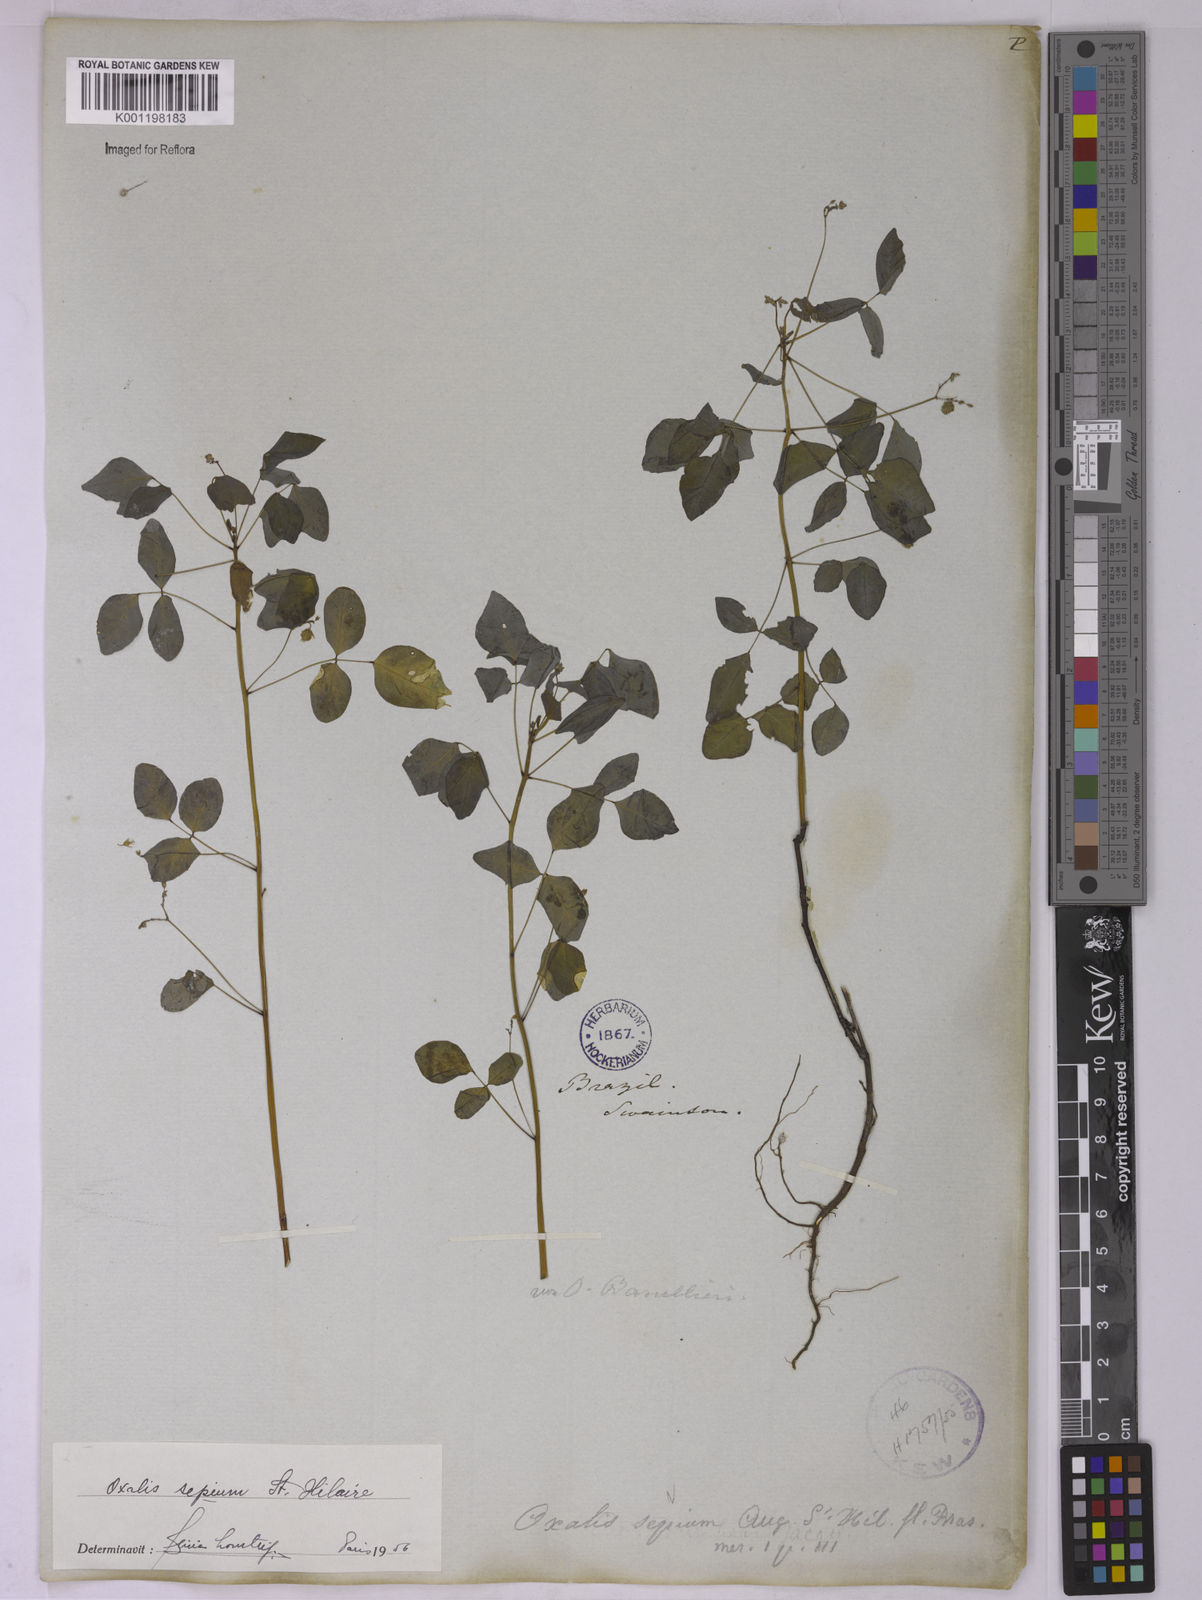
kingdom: Plantae
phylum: Tracheophyta
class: Magnoliopsida
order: Oxalidales
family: Oxalidaceae
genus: Oxalis
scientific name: Oxalis sepium
